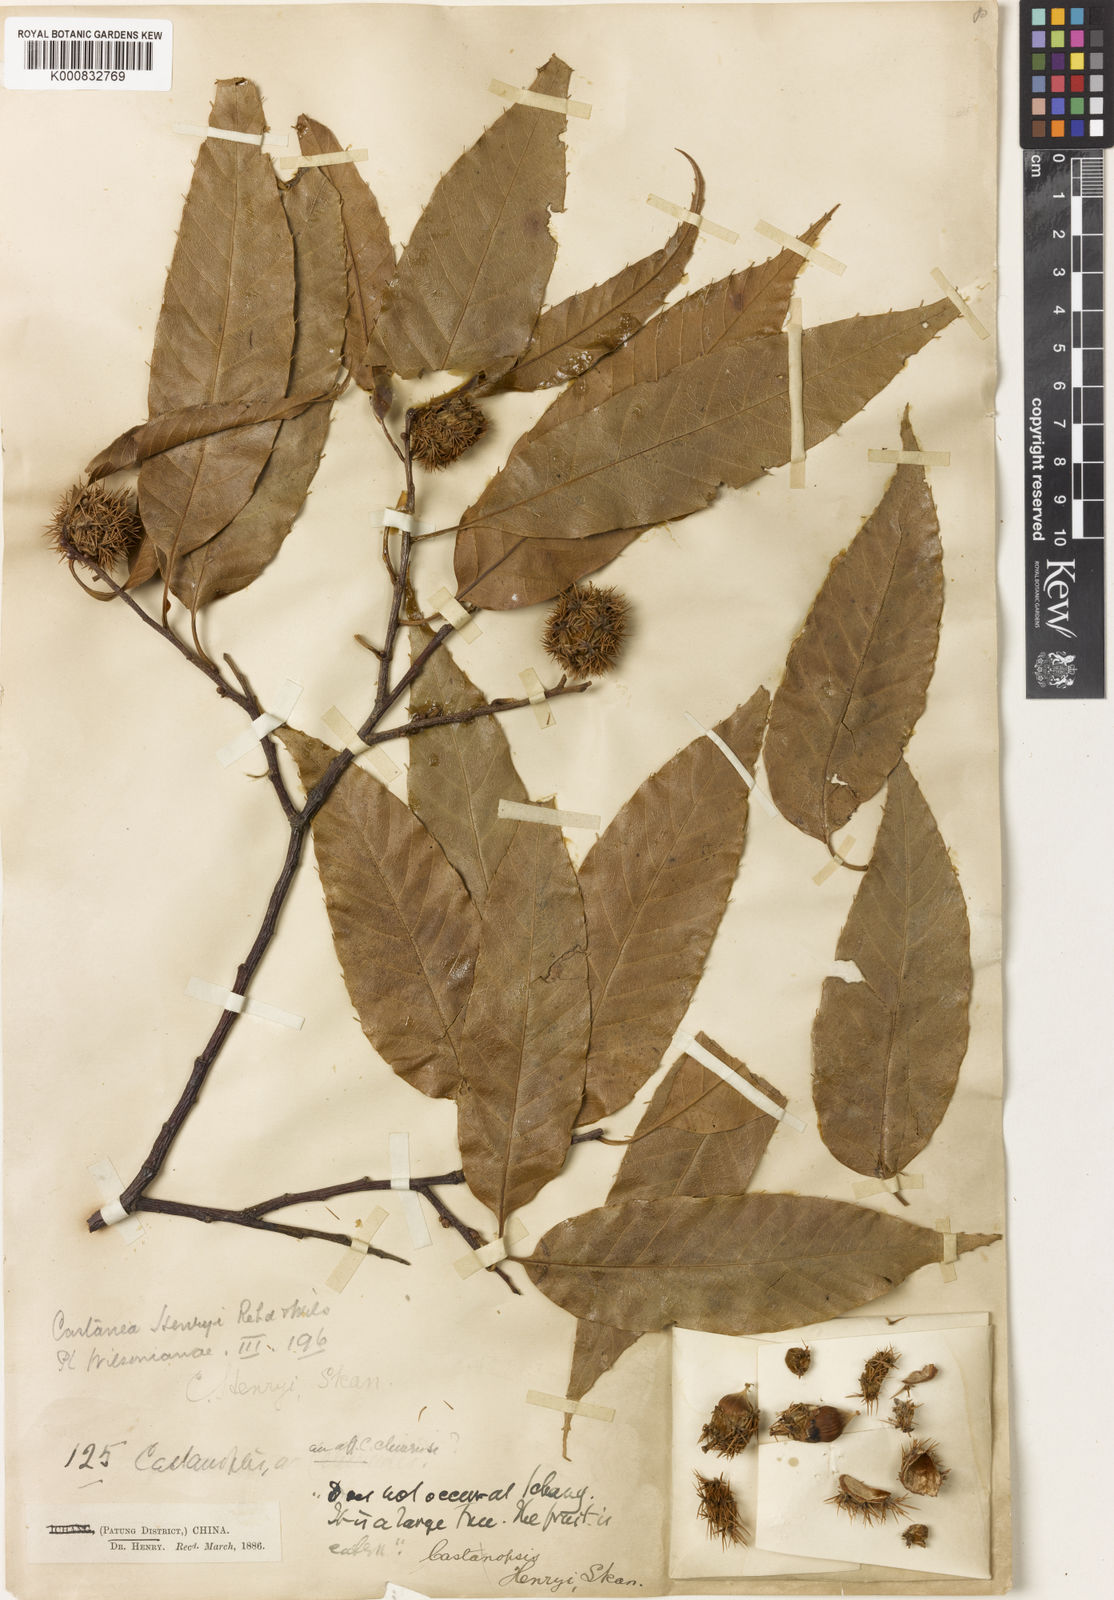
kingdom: Plantae
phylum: Tracheophyta
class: Magnoliopsida
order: Fagales
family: Fagaceae
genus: Castanea
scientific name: Castanea henryi
